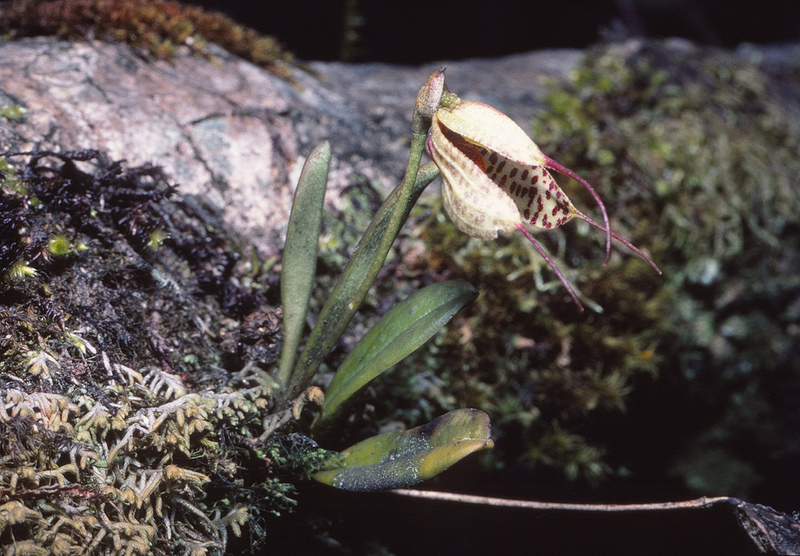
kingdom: Plantae
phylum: Tracheophyta
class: Liliopsida
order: Asparagales
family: Orchidaceae
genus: Masdevallia
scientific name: Masdevallia picturata
